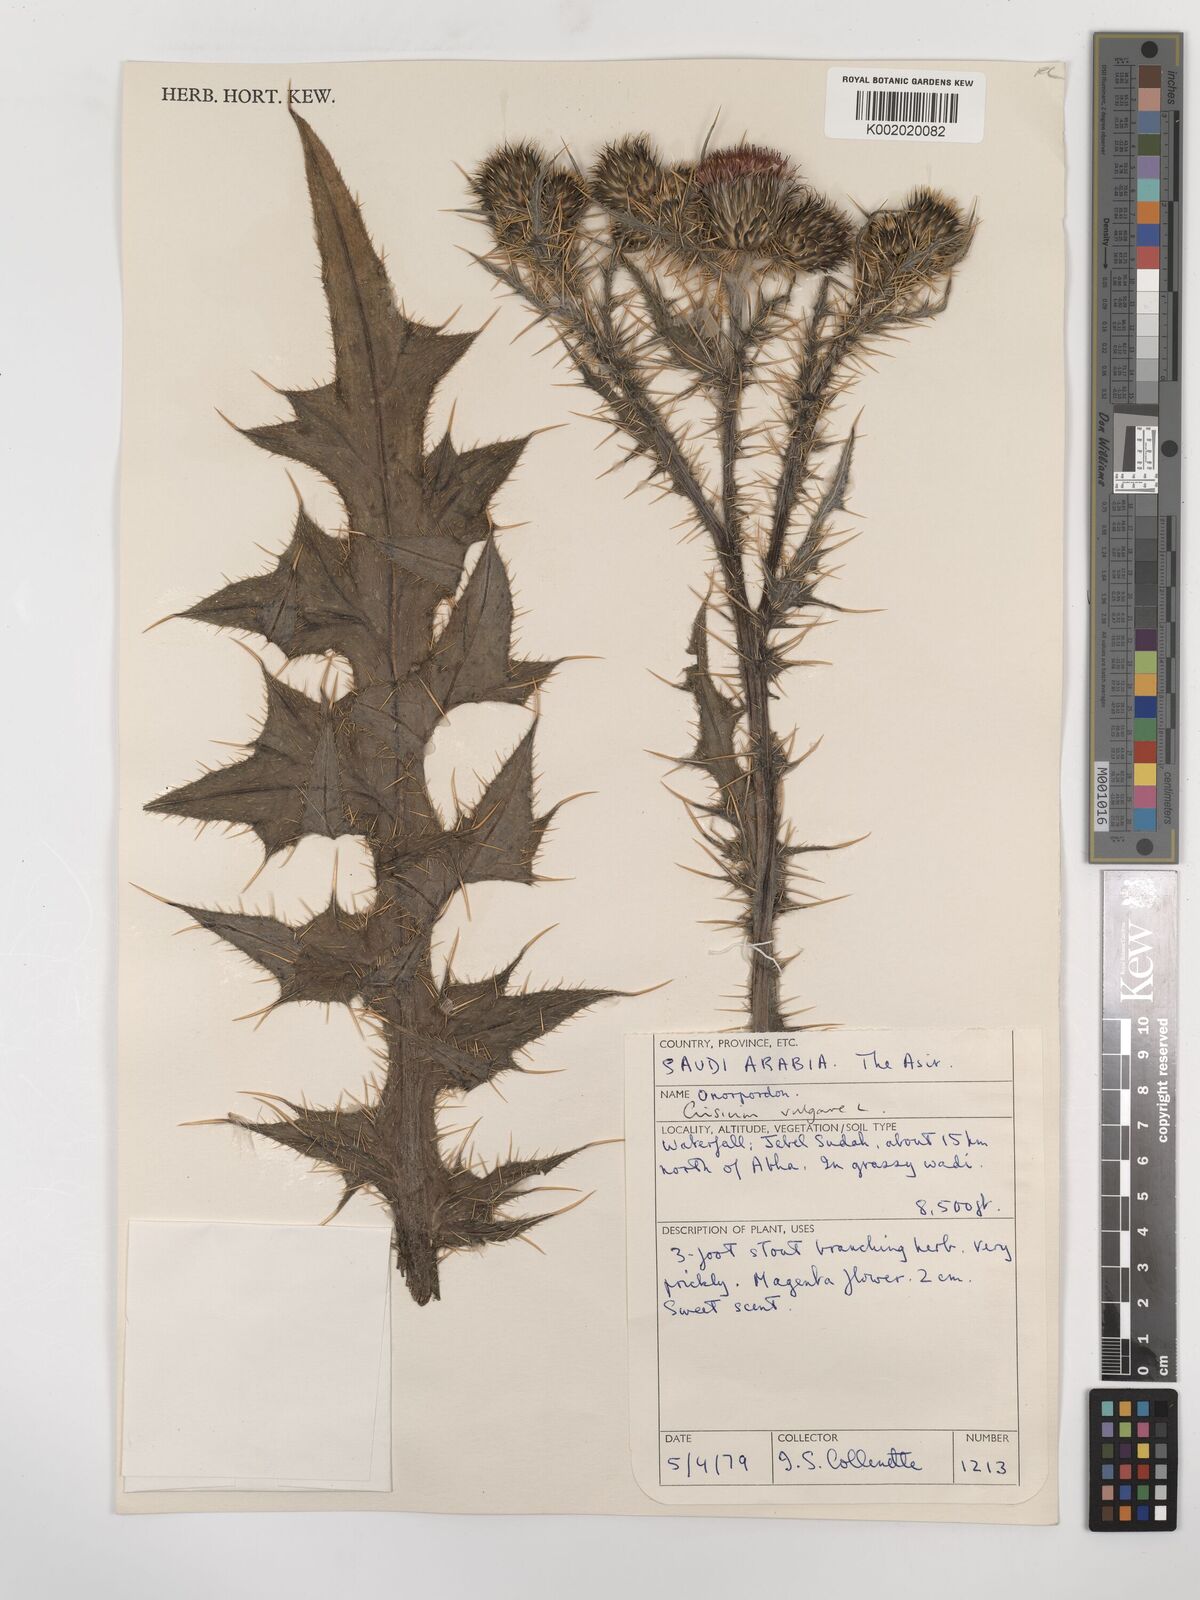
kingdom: Plantae
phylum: Tracheophyta
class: Magnoliopsida
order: Asterales
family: Asteraceae
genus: Cirsium
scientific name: Cirsium vulgare
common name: Bull thistle
